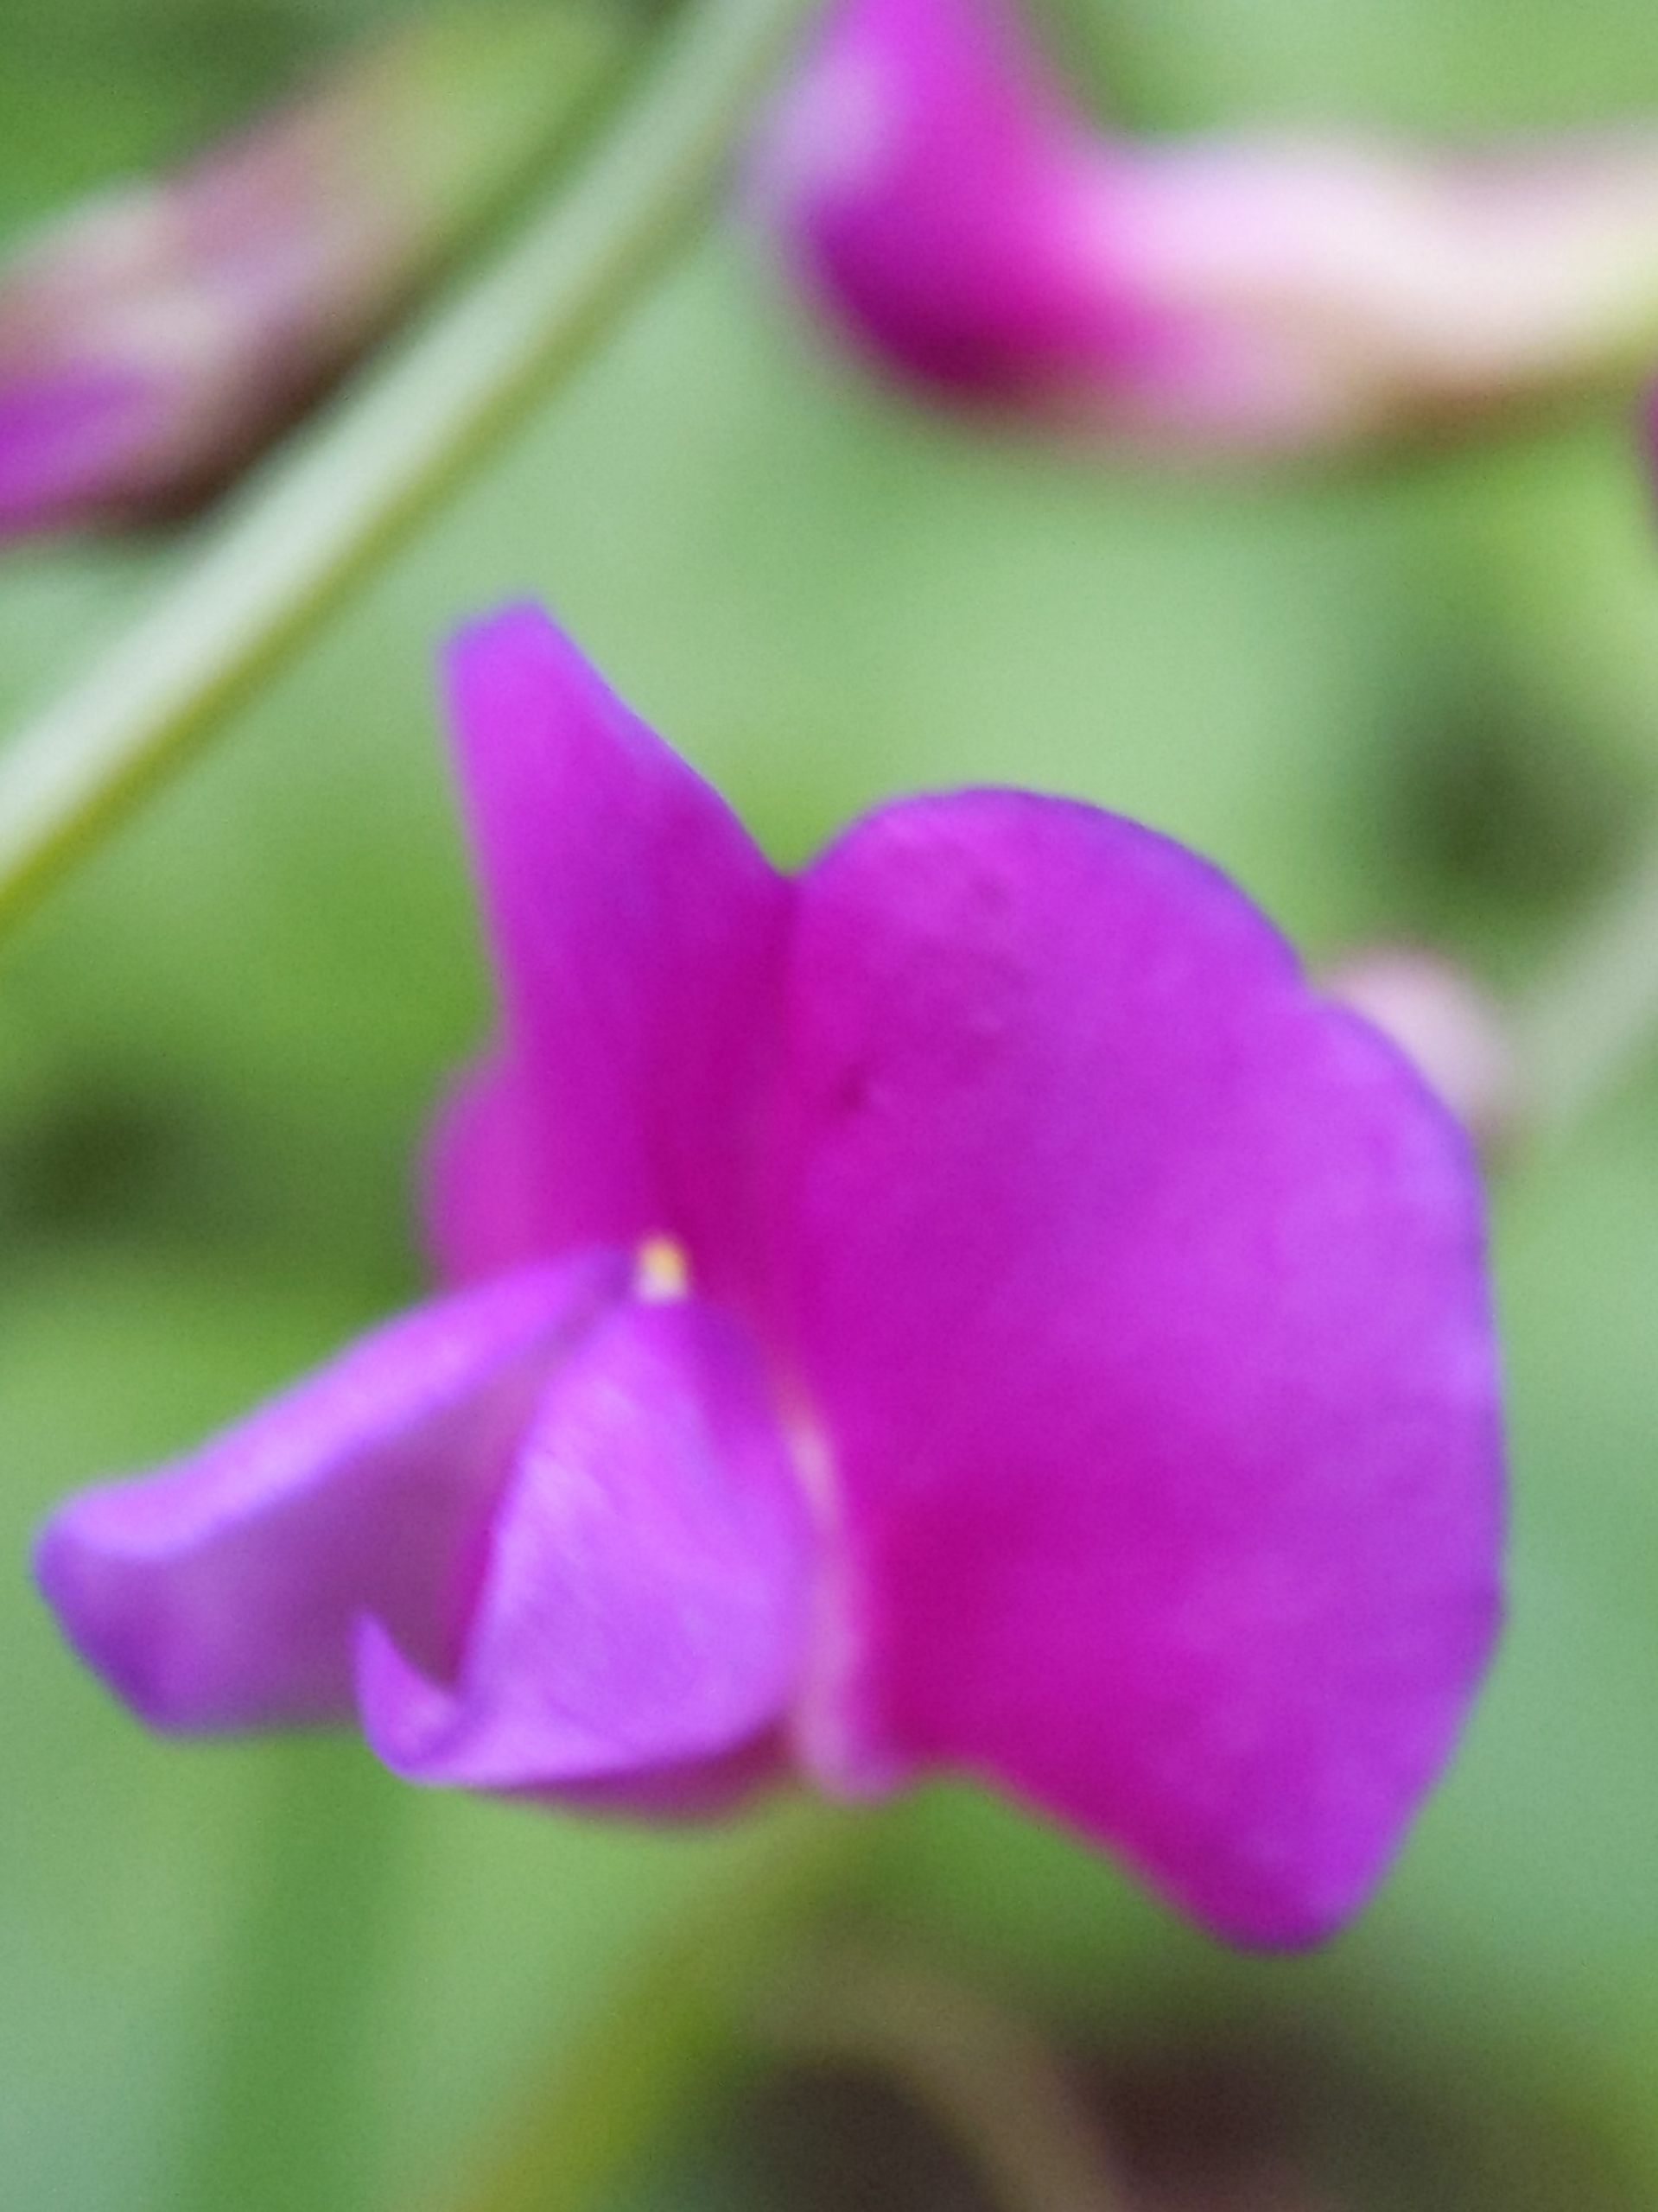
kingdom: Plantae
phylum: Tracheophyta
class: Magnoliopsida
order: Fabales
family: Fabaceae
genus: Lathyrus
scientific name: Lathyrus vernus
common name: Vår-fladbælg
